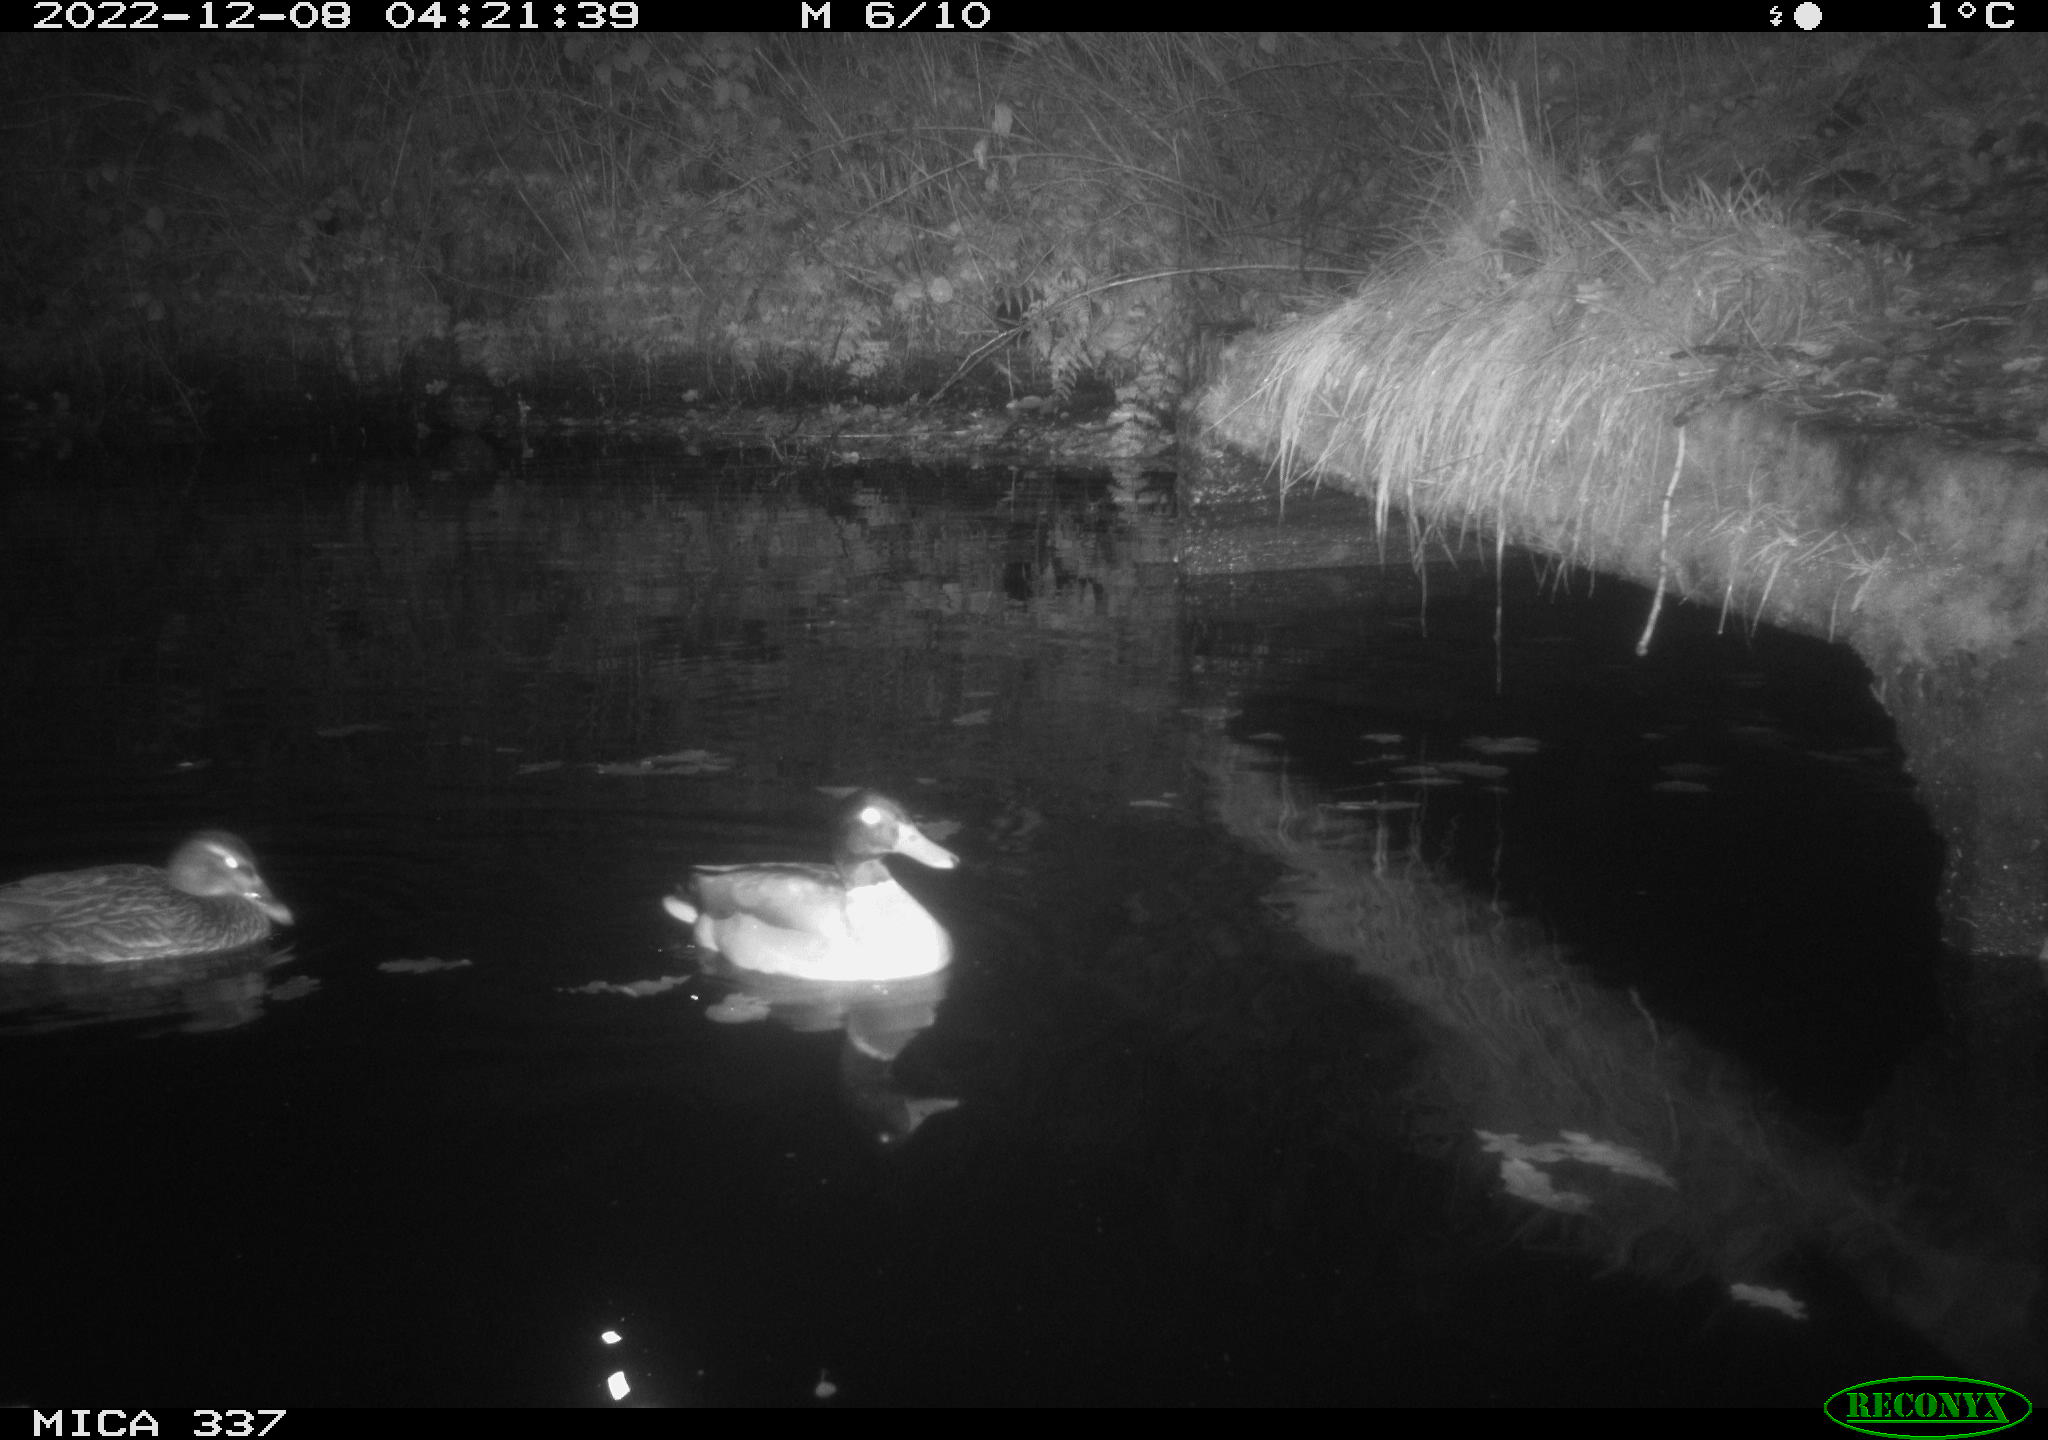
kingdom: Animalia
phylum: Chordata
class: Aves
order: Anseriformes
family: Anatidae
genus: Anas
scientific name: Anas
